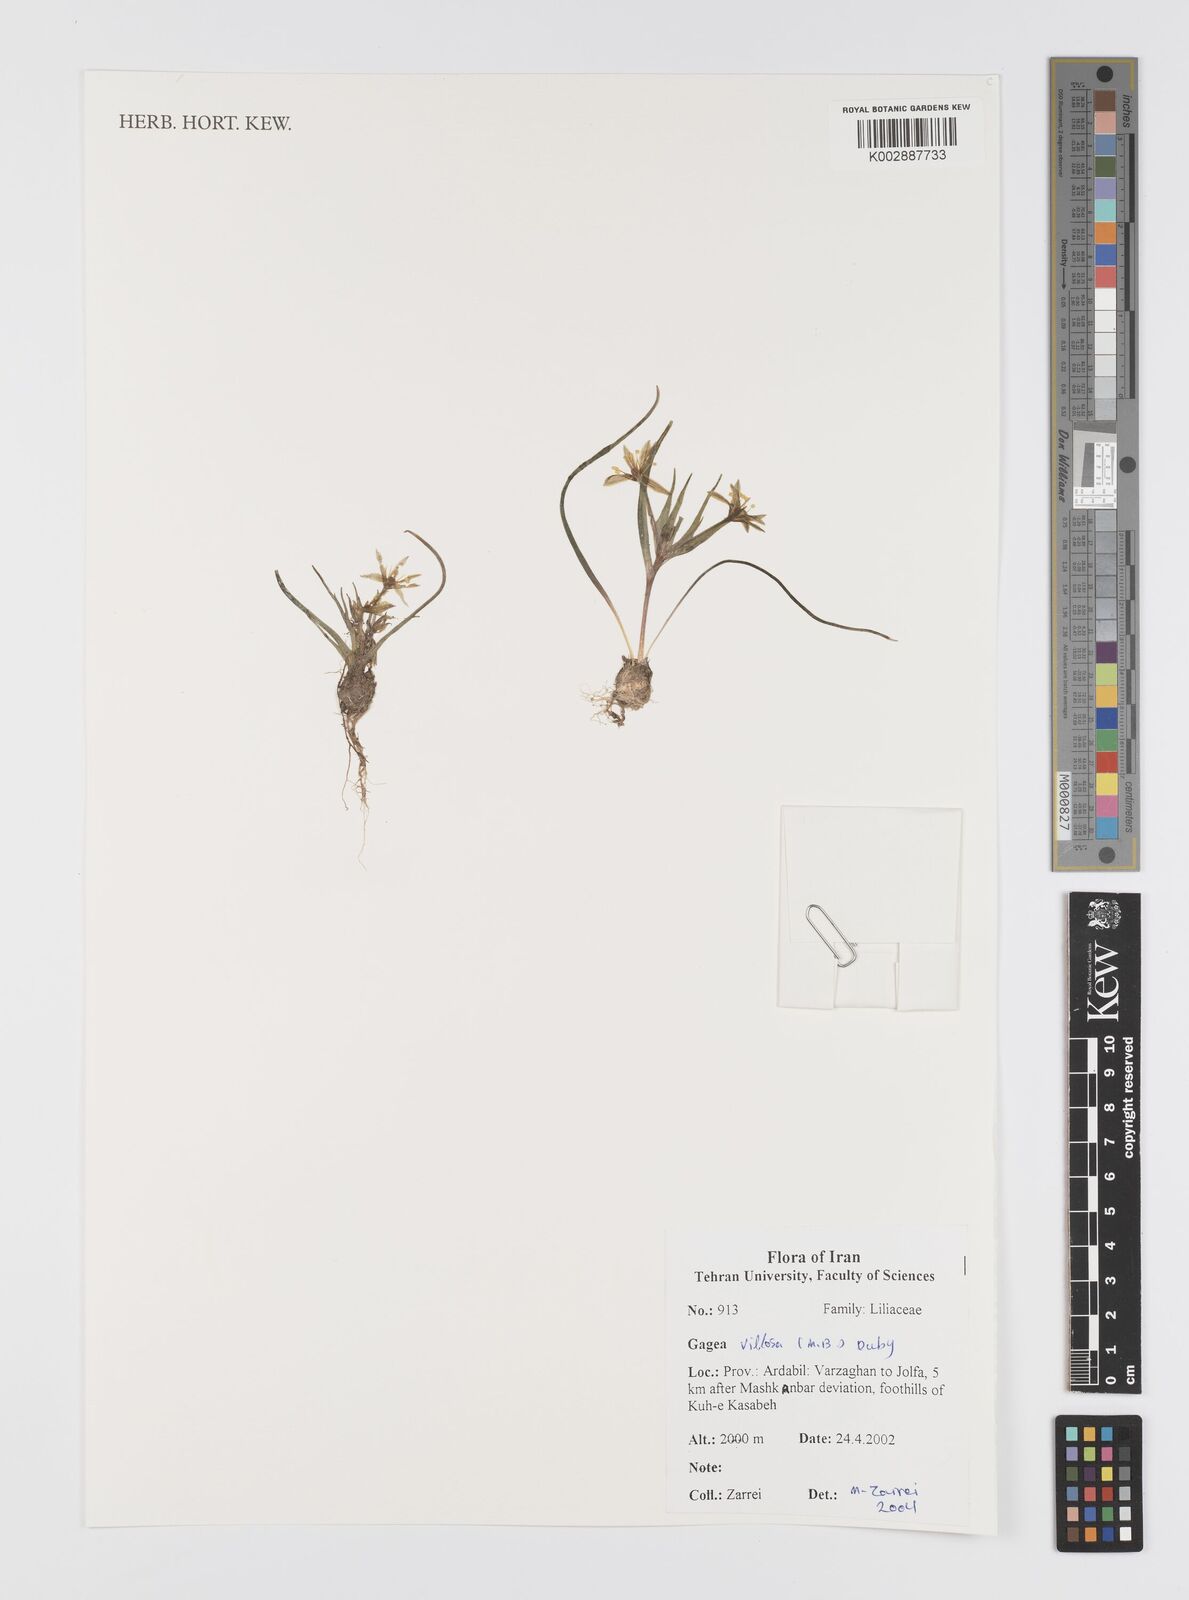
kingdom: Plantae
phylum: Tracheophyta
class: Liliopsida
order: Liliales
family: Liliaceae
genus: Gagea
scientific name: Gagea villosa
